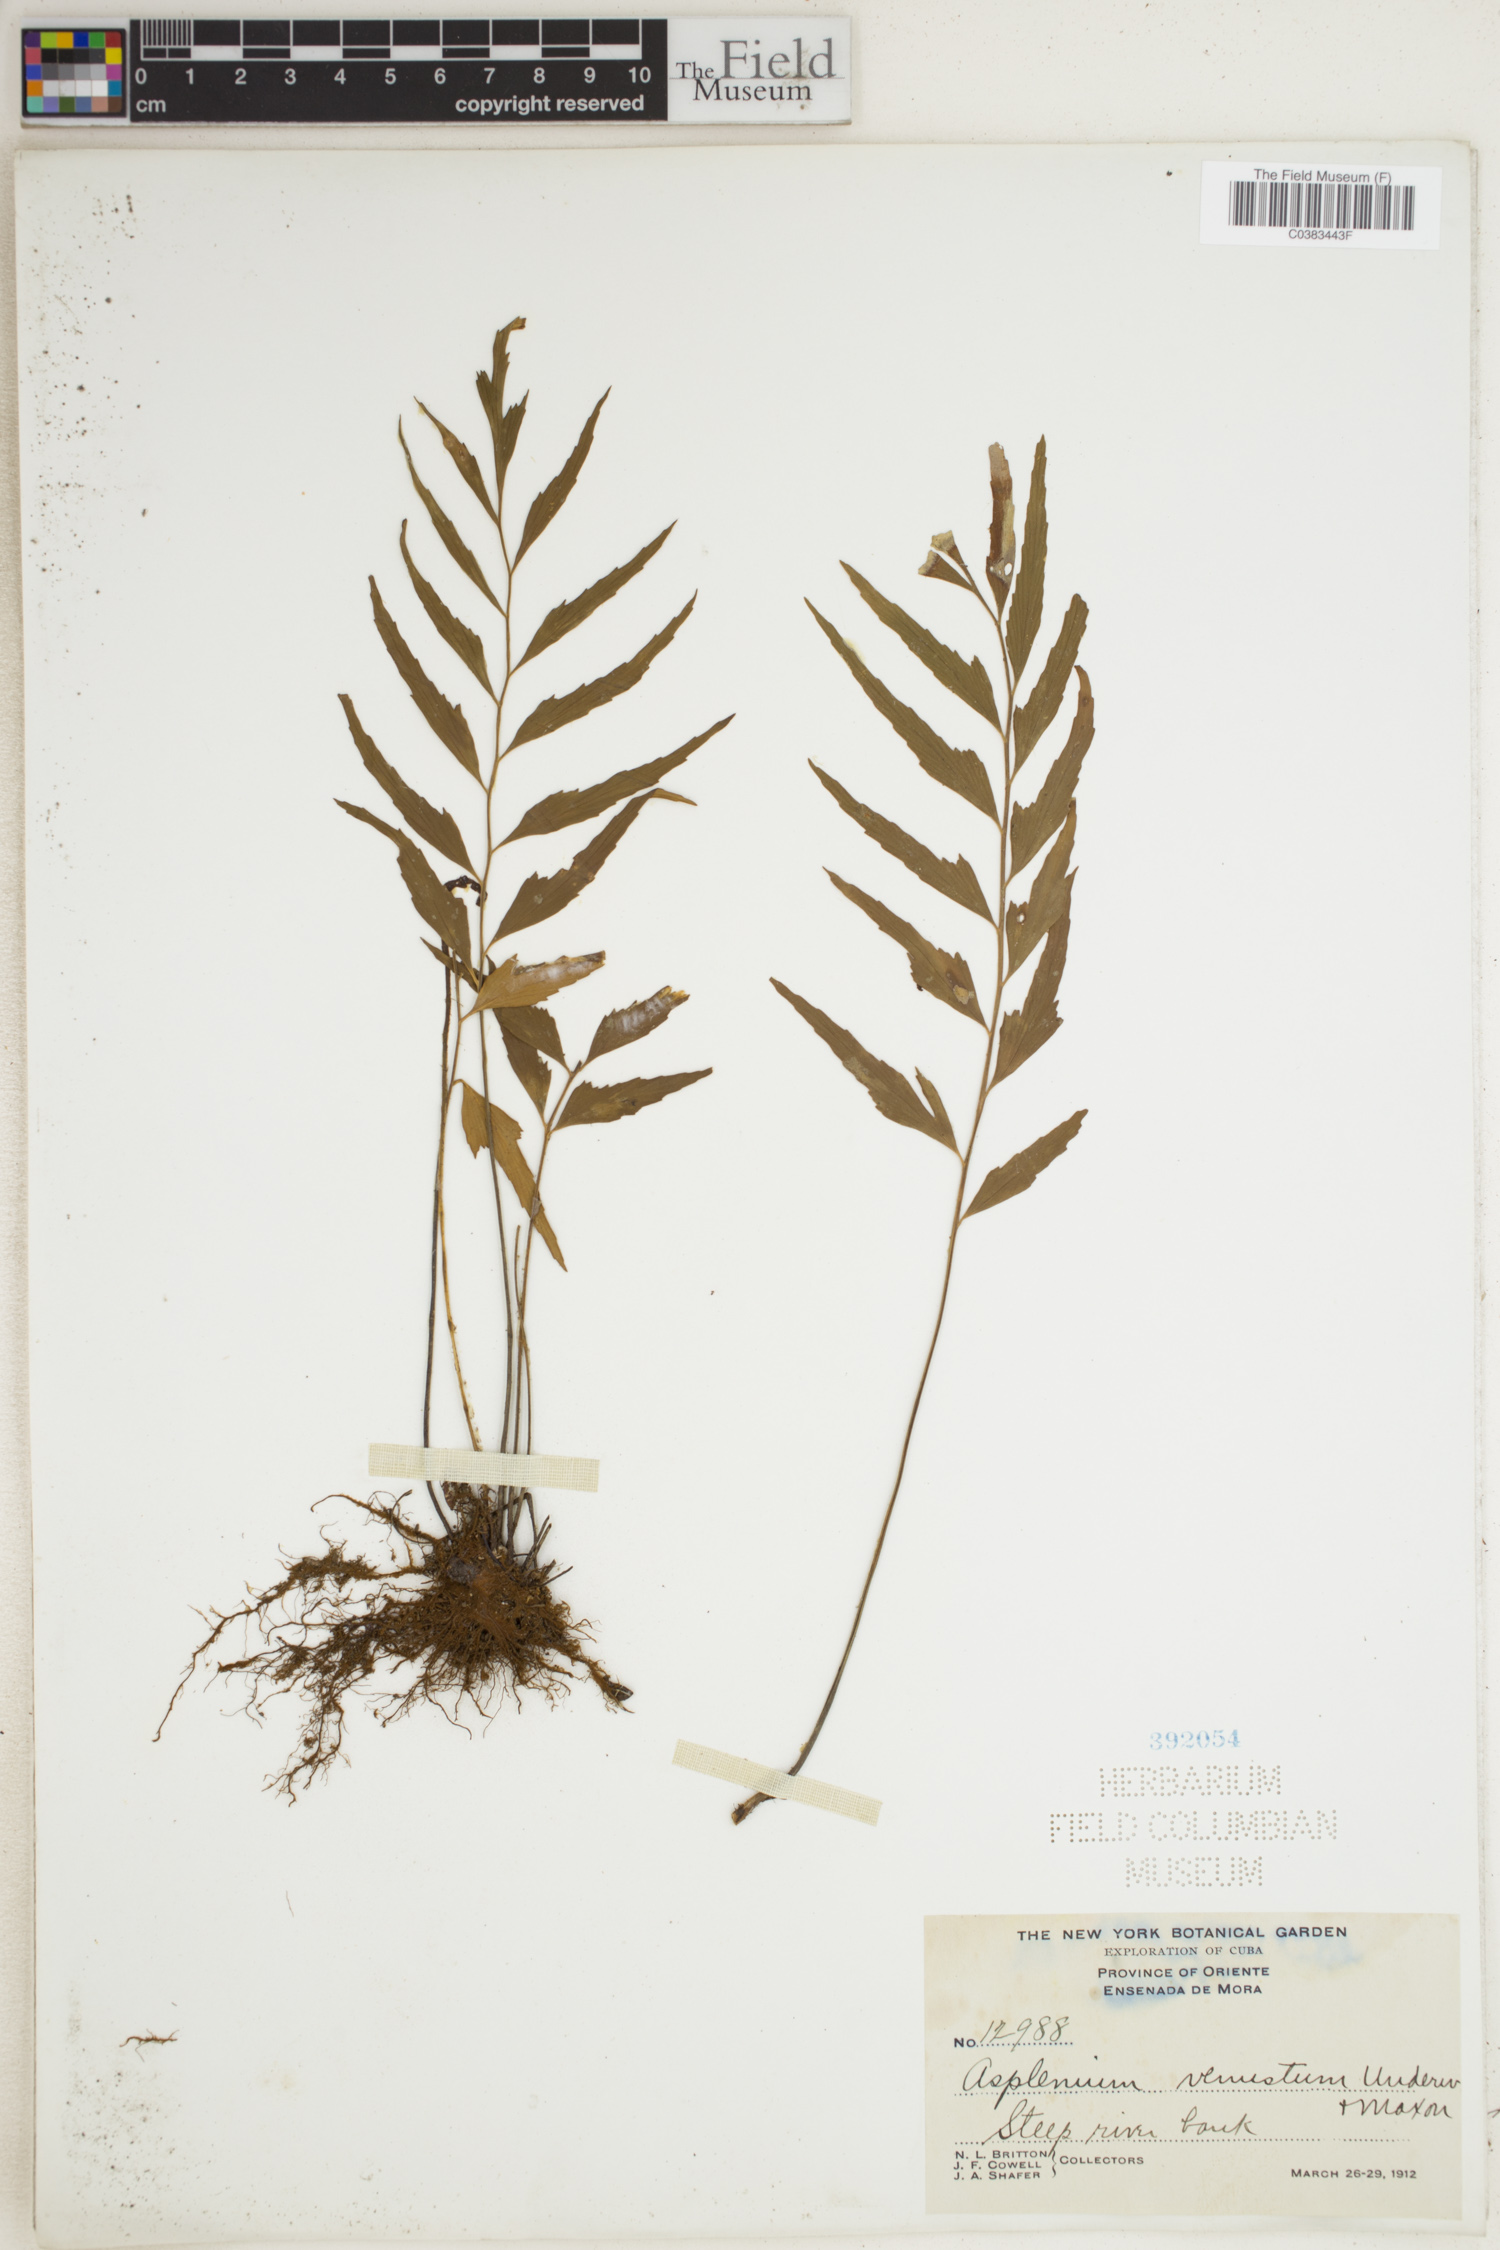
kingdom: Plantae
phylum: Tracheophyta
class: Polypodiopsida
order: Polypodiales
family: Aspleniaceae
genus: Asplenium
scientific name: Asplenium venustum
